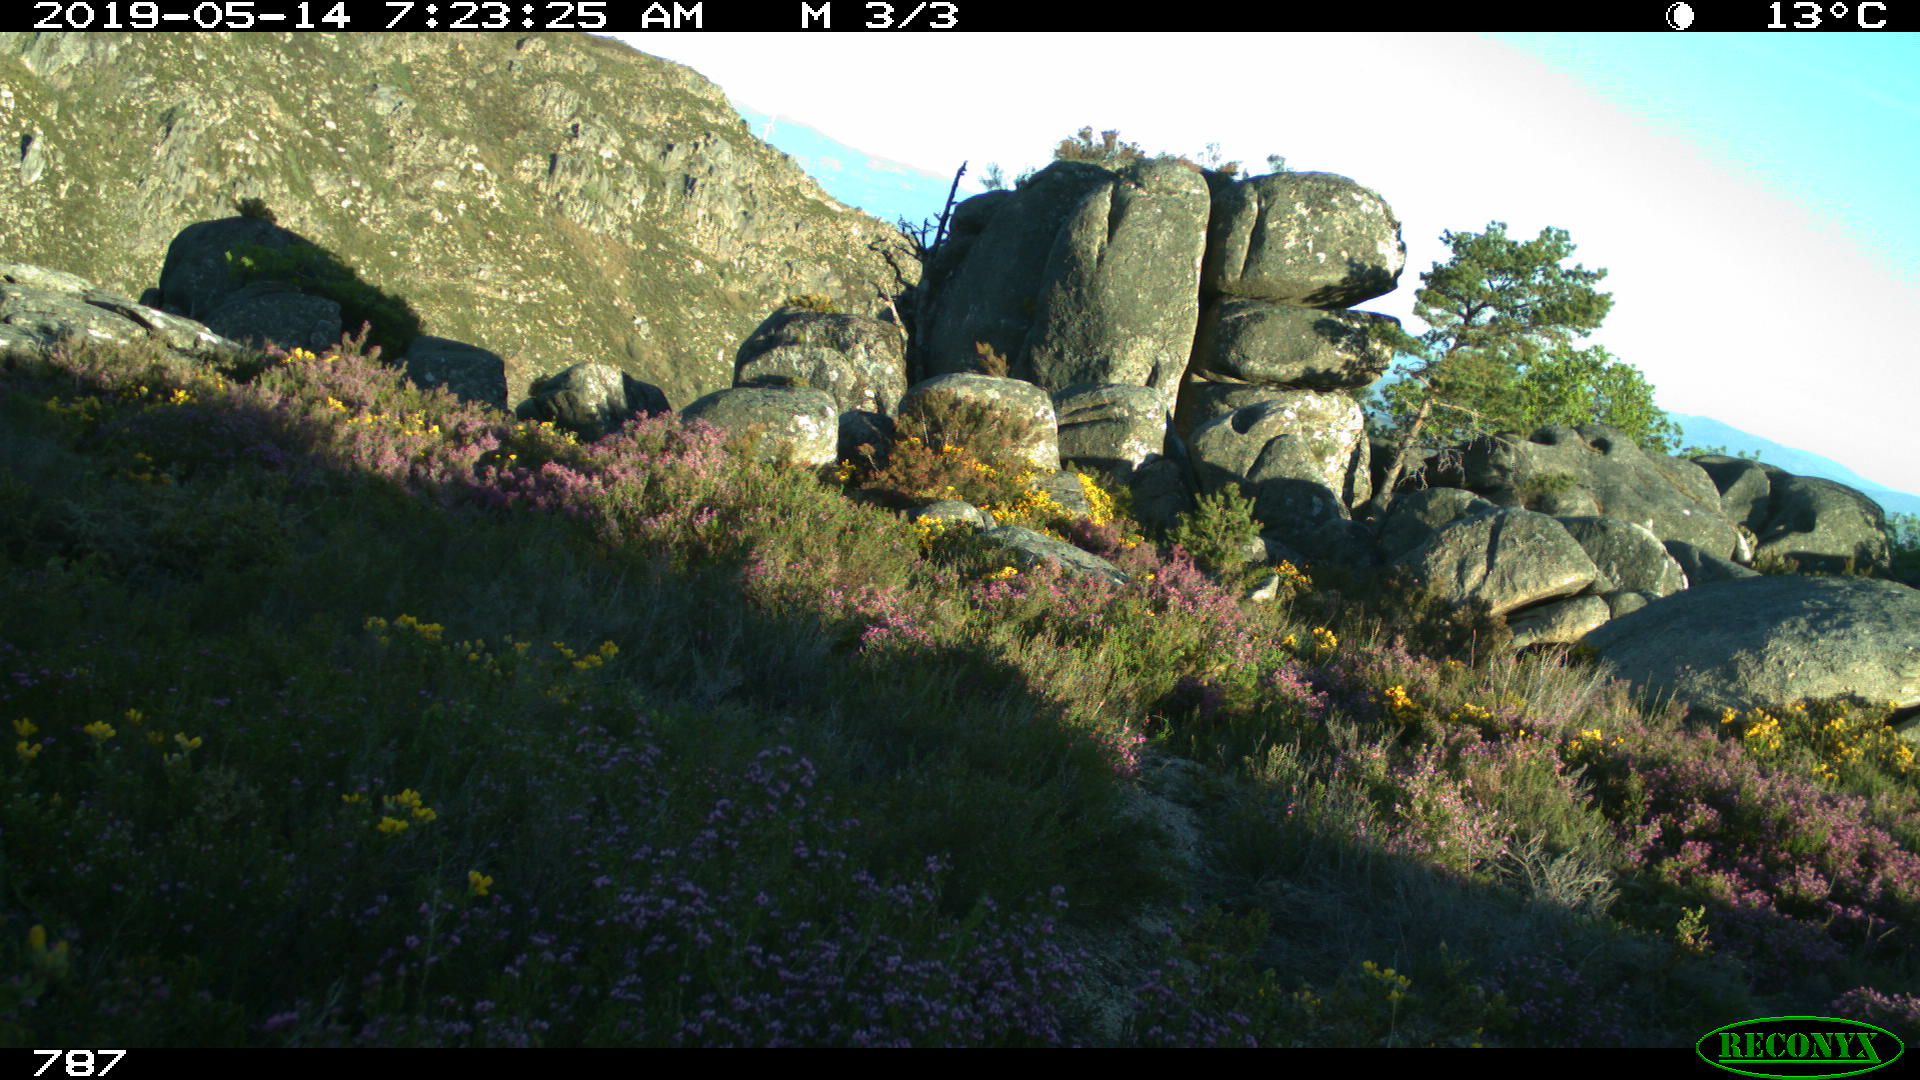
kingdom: Animalia
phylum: Chordata
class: Mammalia
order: Artiodactyla
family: Cervidae
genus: Capreolus
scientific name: Capreolus capreolus
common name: Western roe deer
